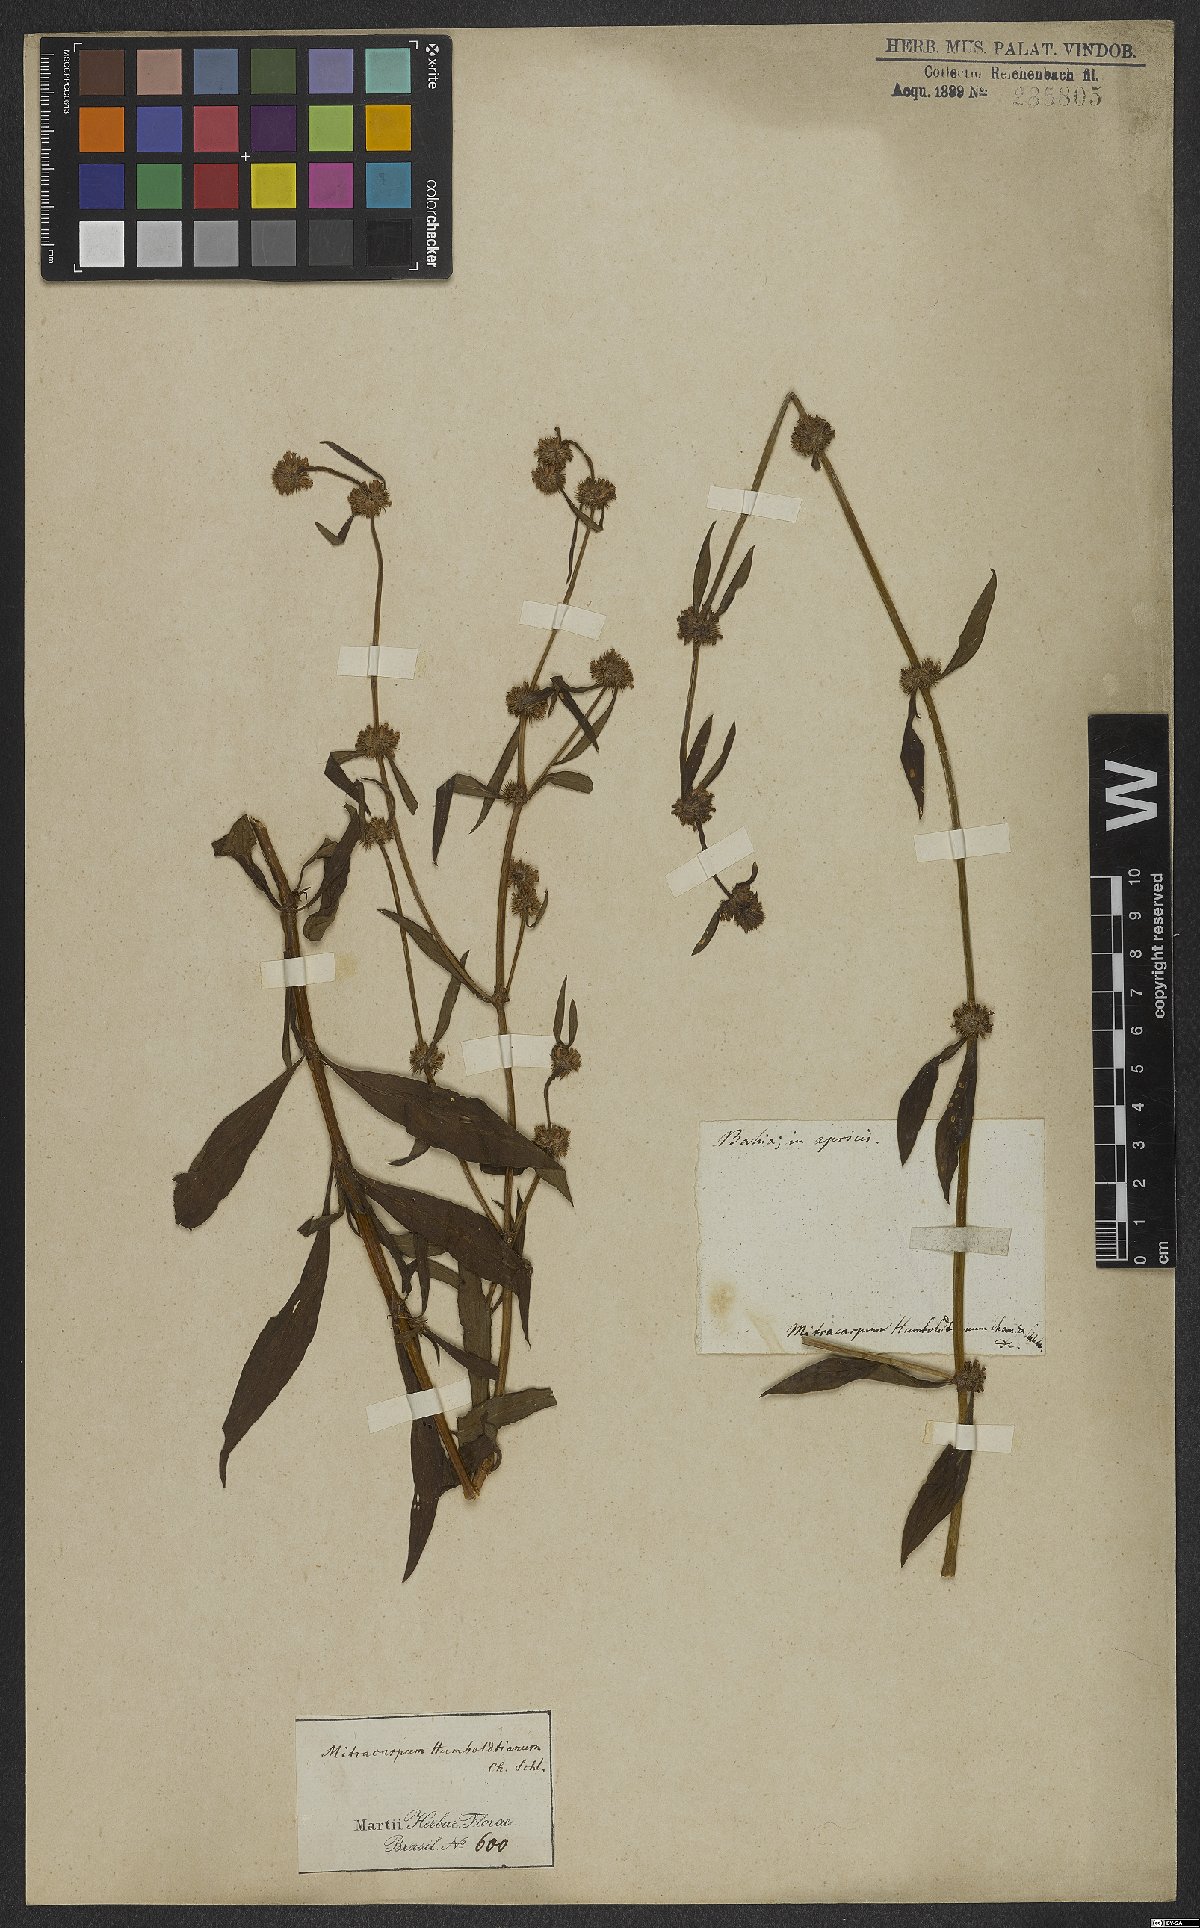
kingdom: Plantae
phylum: Tracheophyta
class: Magnoliopsida
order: Gentianales
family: Rubiaceae
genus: Mitracarpus
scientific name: Mitracarpus frigidus
